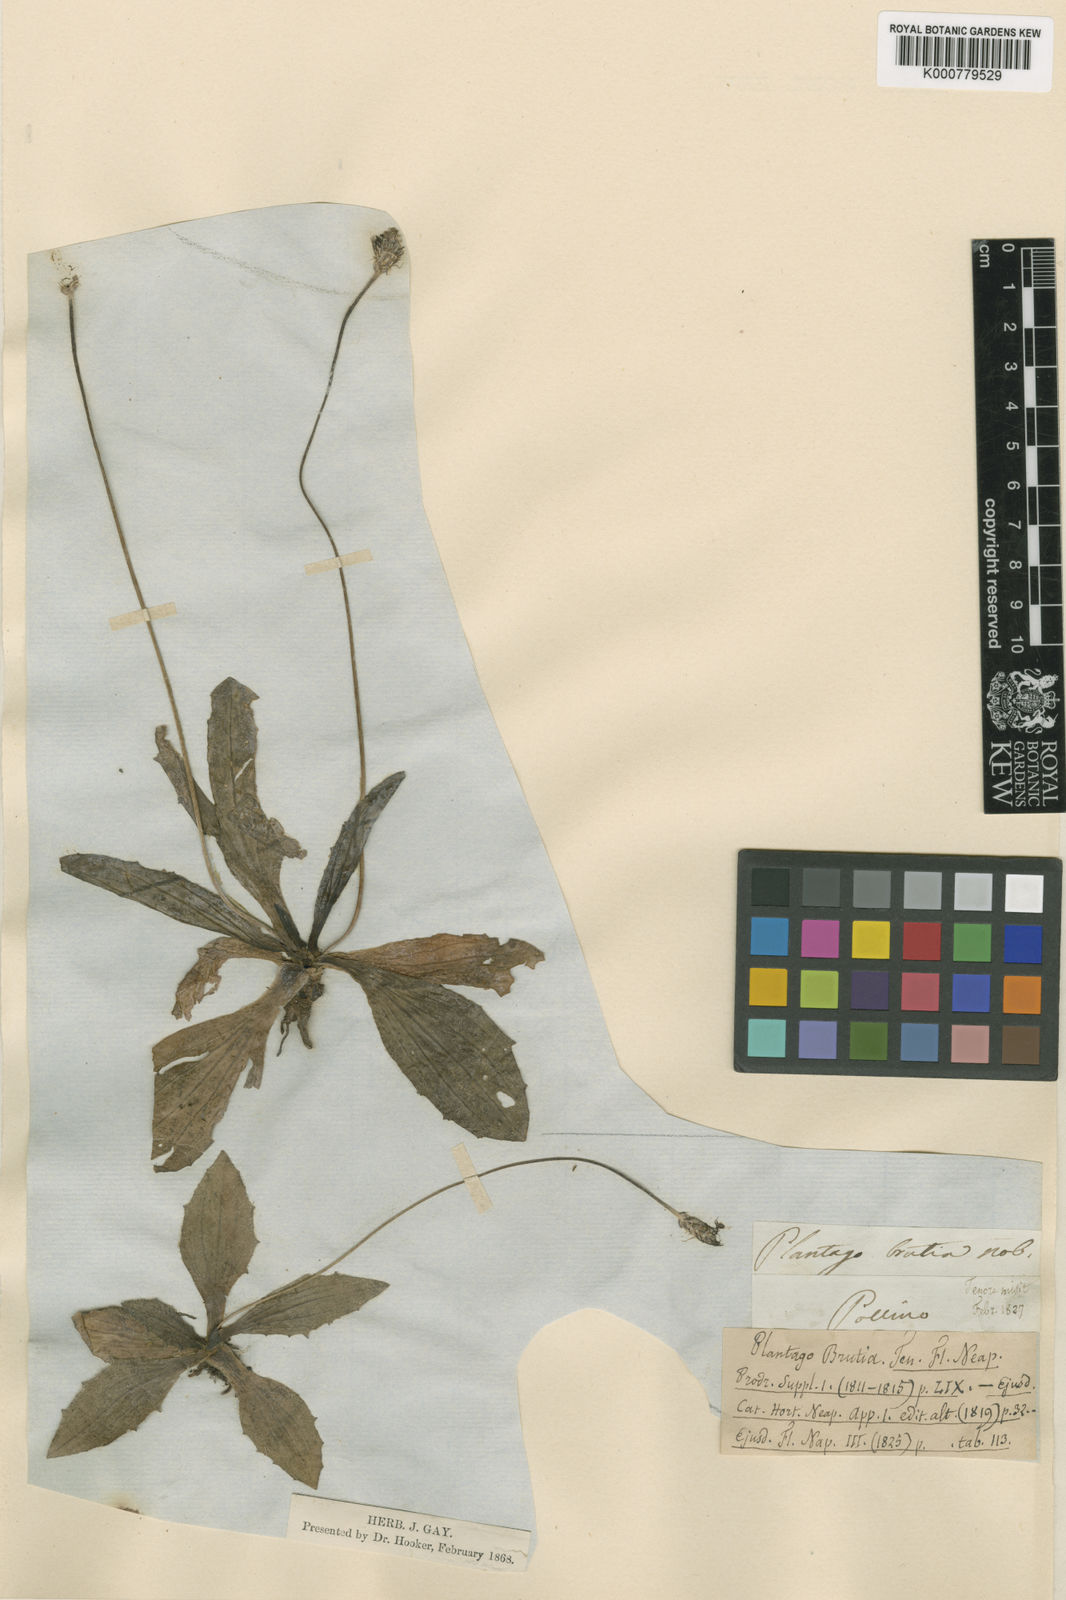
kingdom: Plantae
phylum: Tracheophyta
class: Magnoliopsida
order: Lamiales
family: Plantaginaceae
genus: Plantago
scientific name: Plantago media
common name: Hoary plantain
